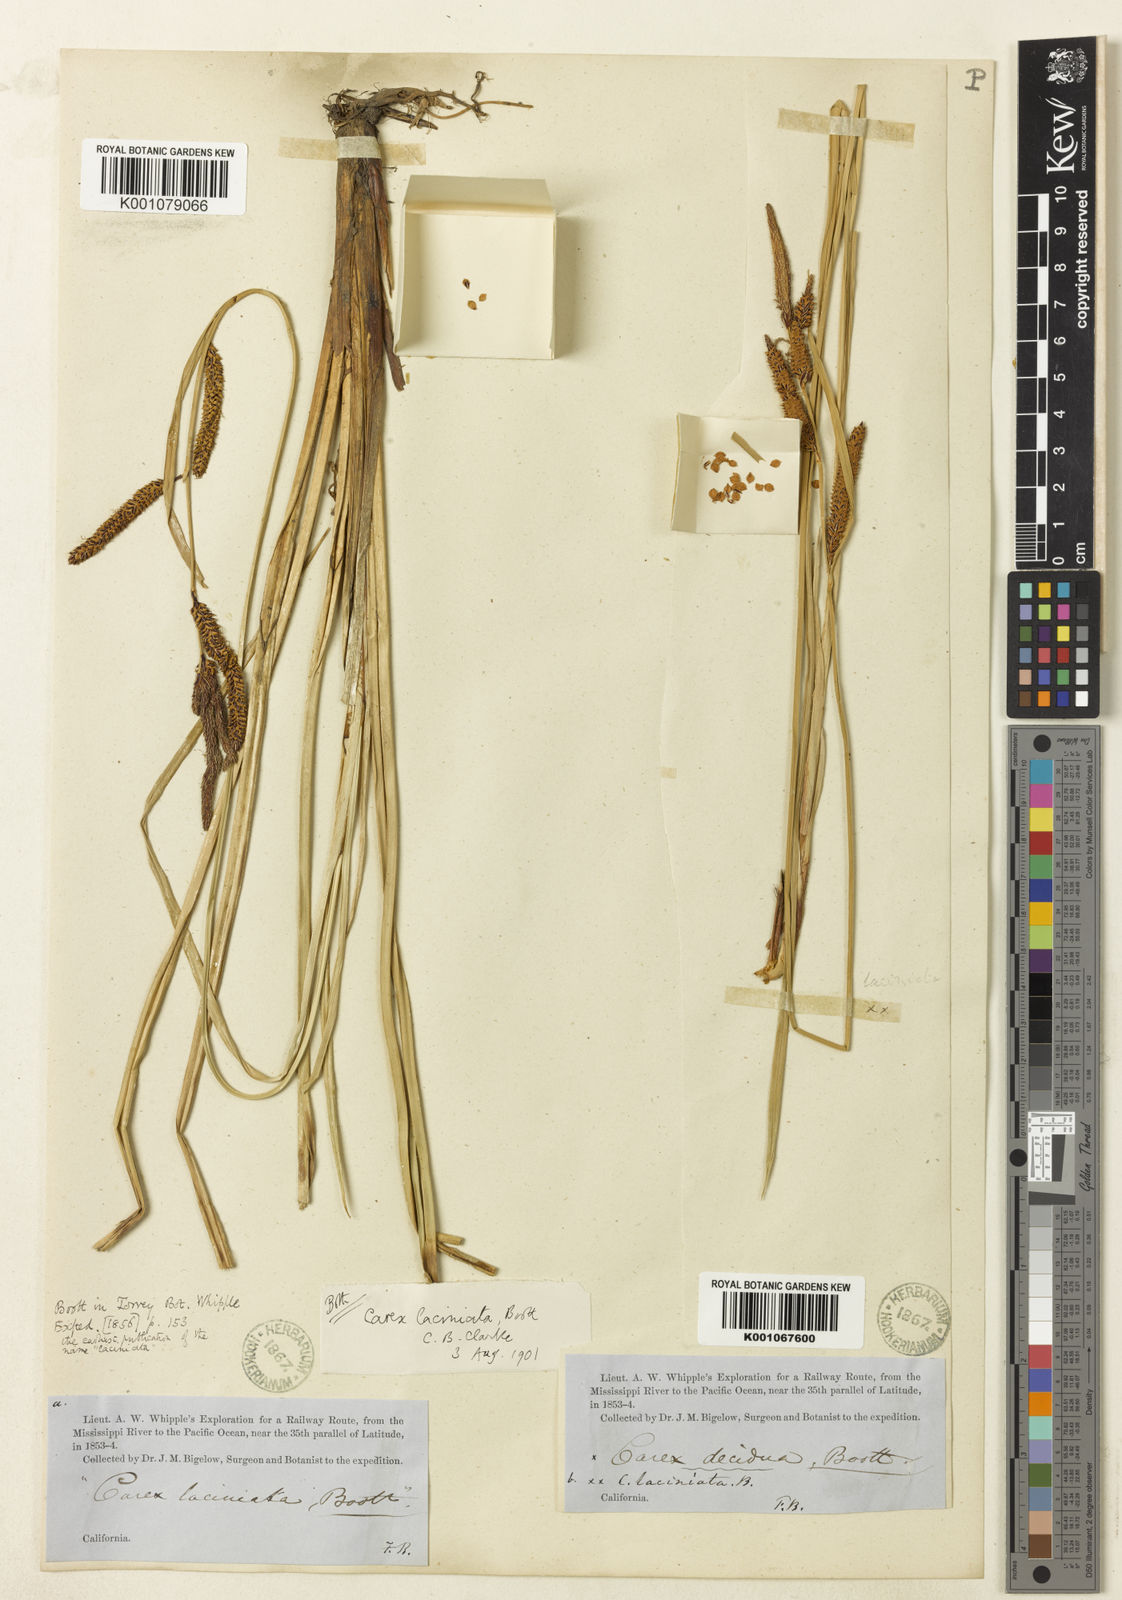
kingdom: Plantae
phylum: Tracheophyta
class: Liliopsida
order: Poales
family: Cyperaceae
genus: Carex
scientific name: Carex
